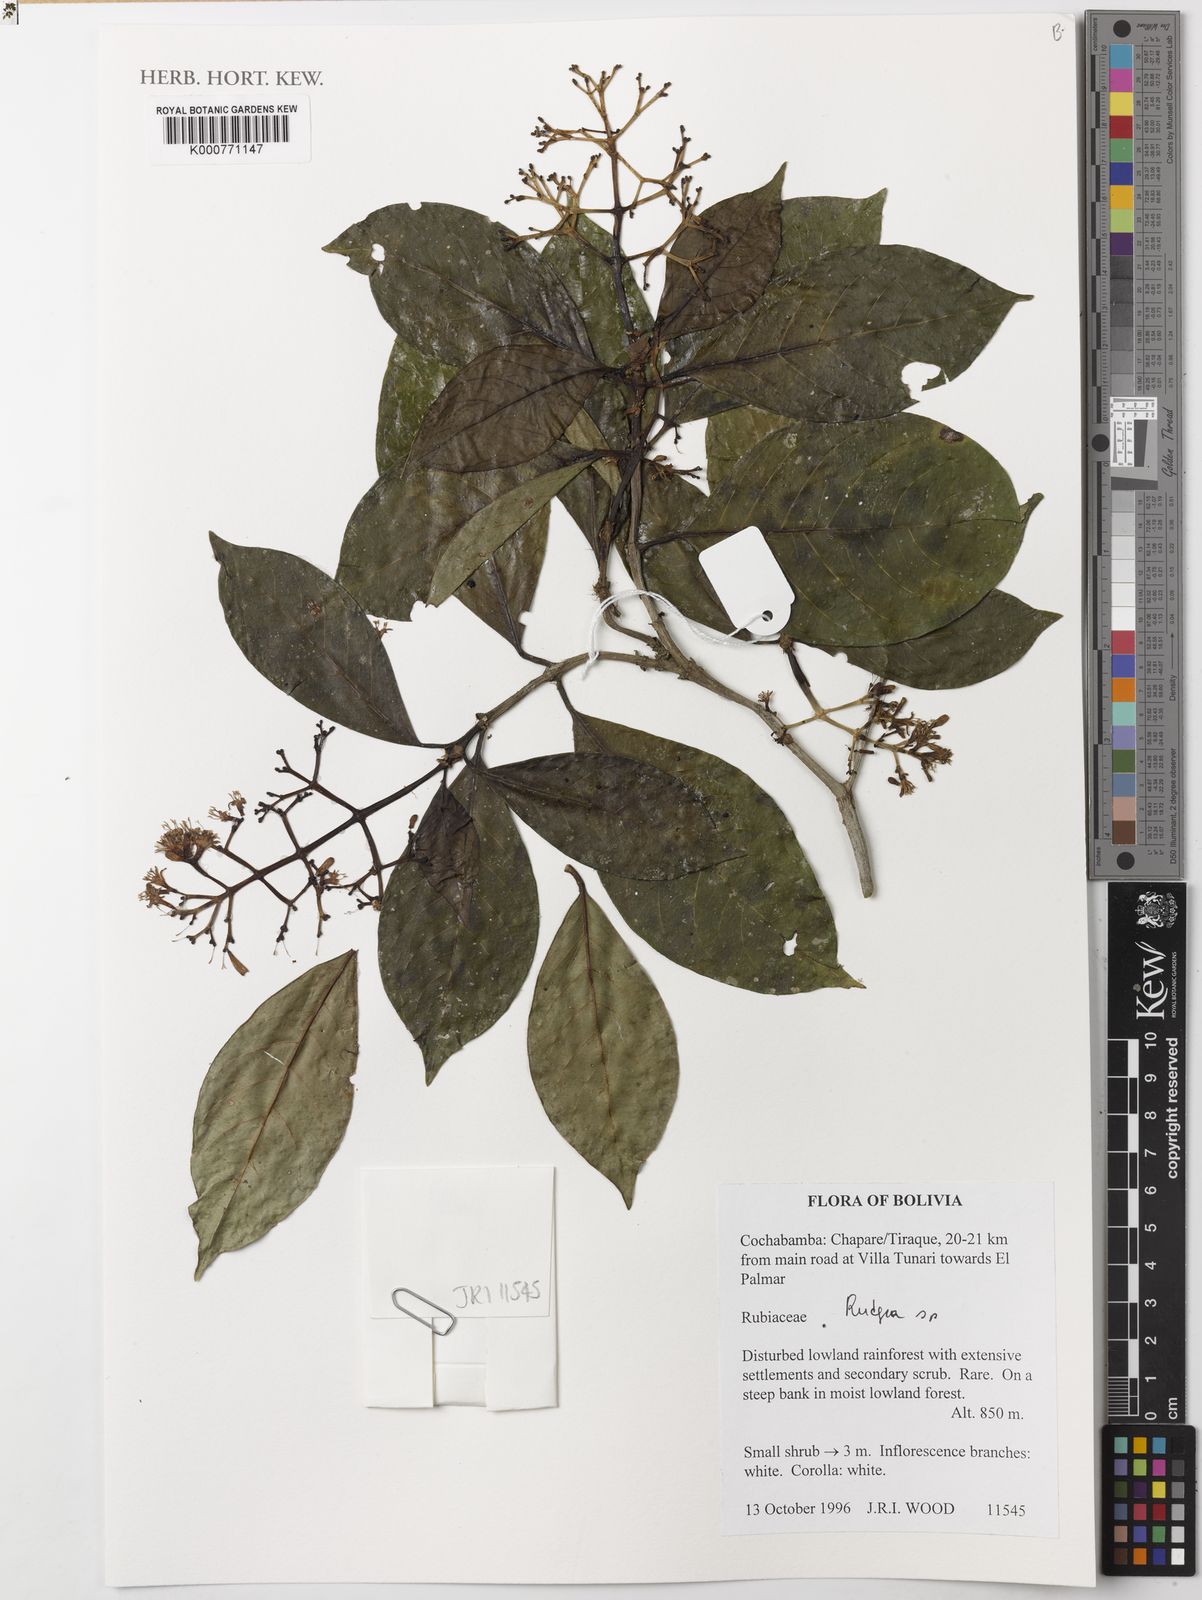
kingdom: Plantae
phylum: Tracheophyta
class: Magnoliopsida
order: Gentianales
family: Rubiaceae
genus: Rudgea
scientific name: Rudgea
